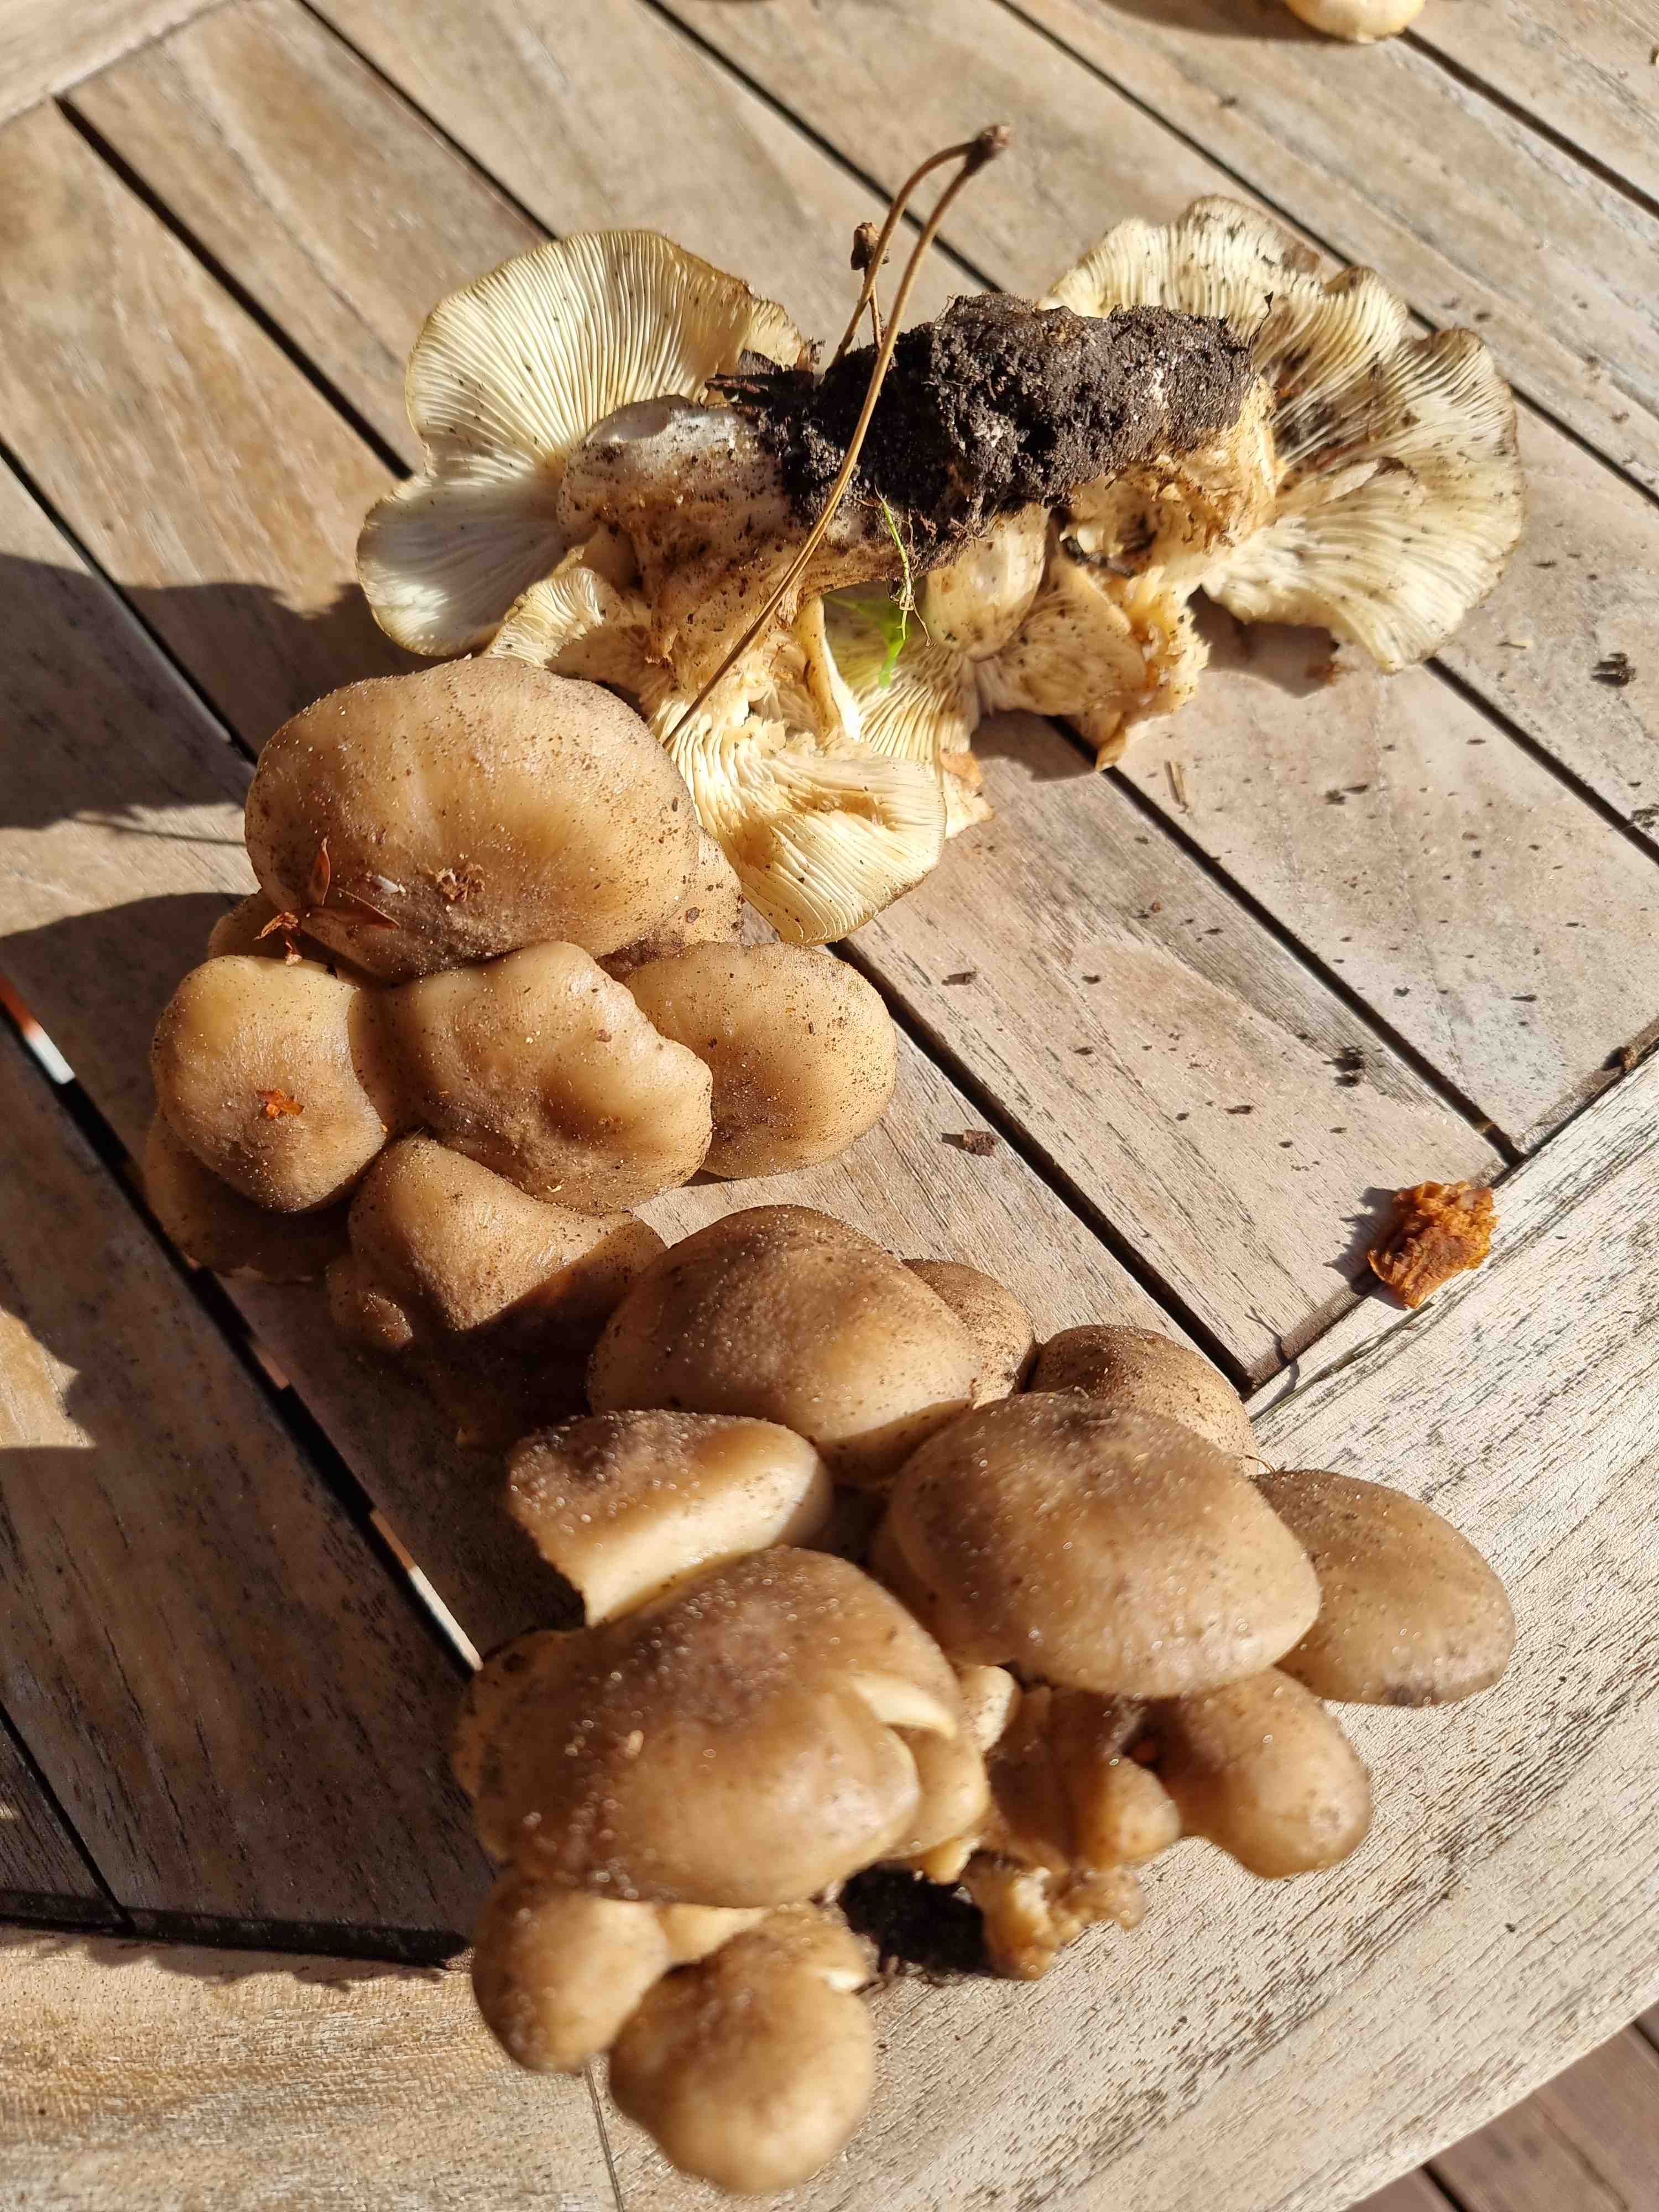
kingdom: Fungi
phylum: Basidiomycota
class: Agaricomycetes
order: Agaricales
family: Lyophyllaceae
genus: Lyophyllum
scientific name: Lyophyllum decastes
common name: røggrå gråblad
